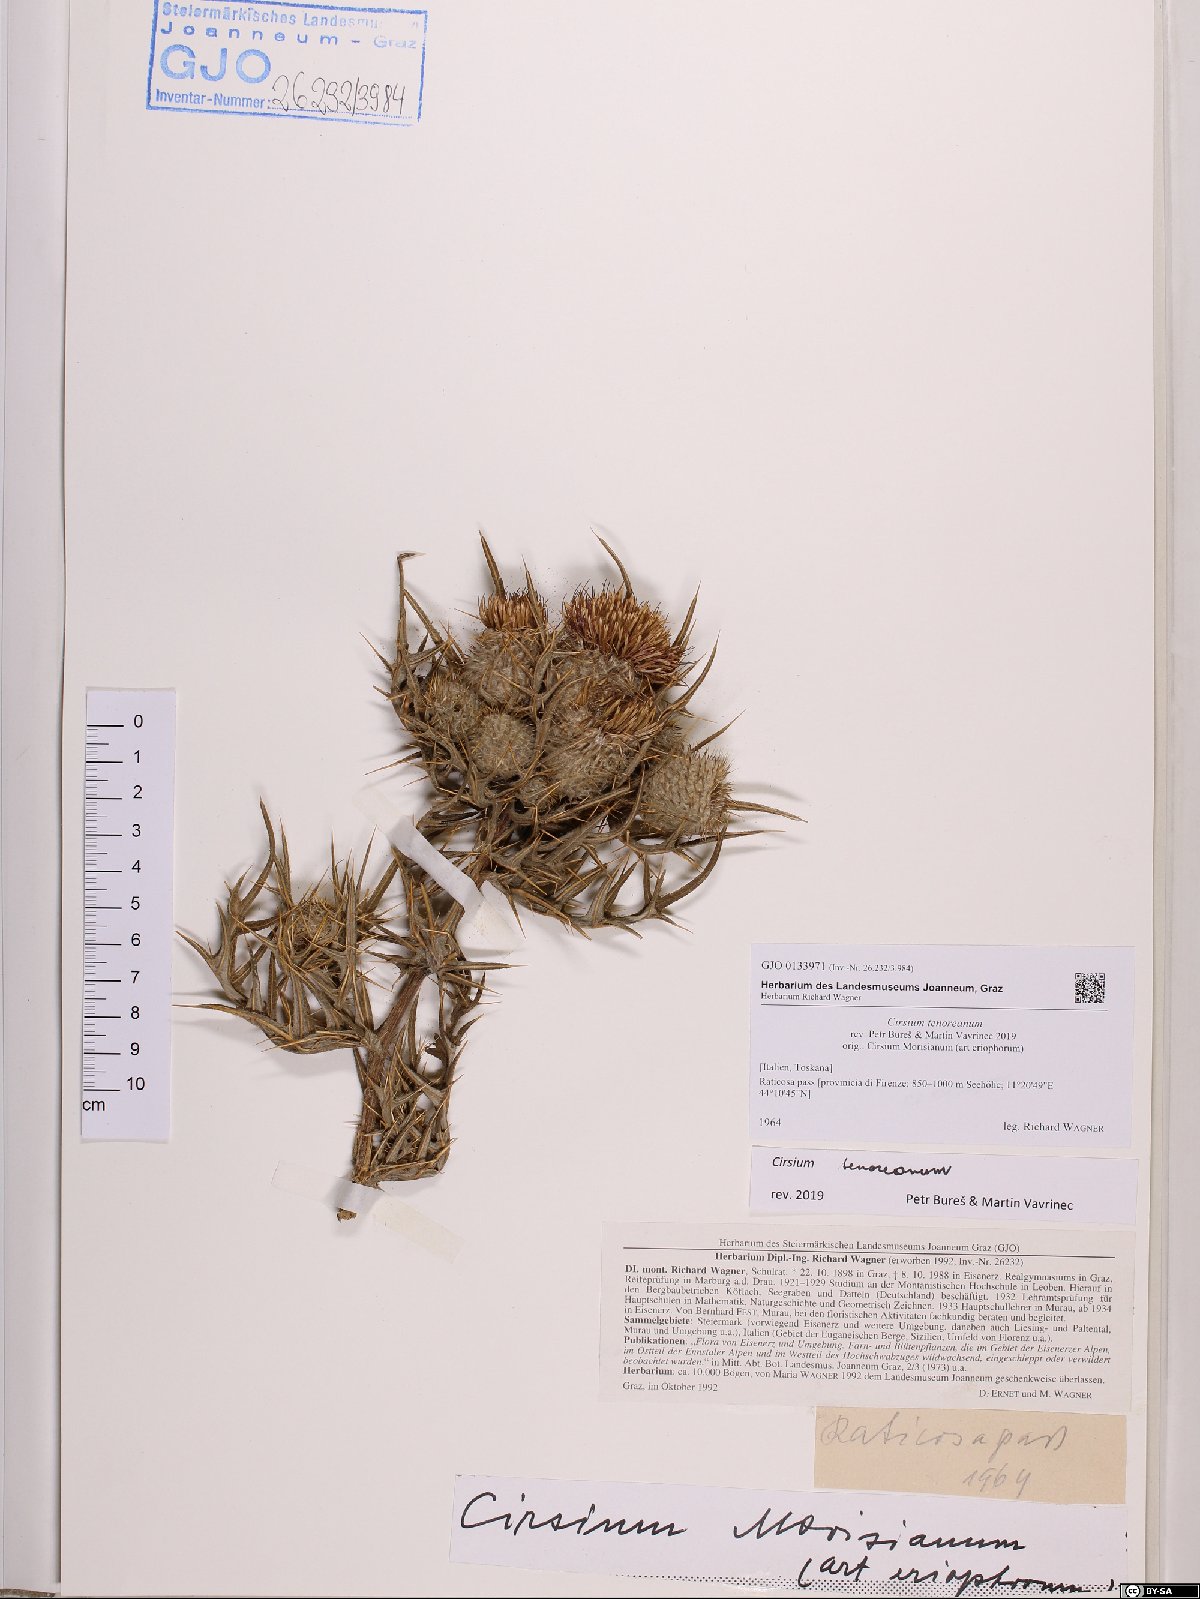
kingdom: Plantae
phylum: Tracheophyta
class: Magnoliopsida
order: Asterales
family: Asteraceae
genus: Lophiolepis
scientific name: Lophiolepis tenoreana
